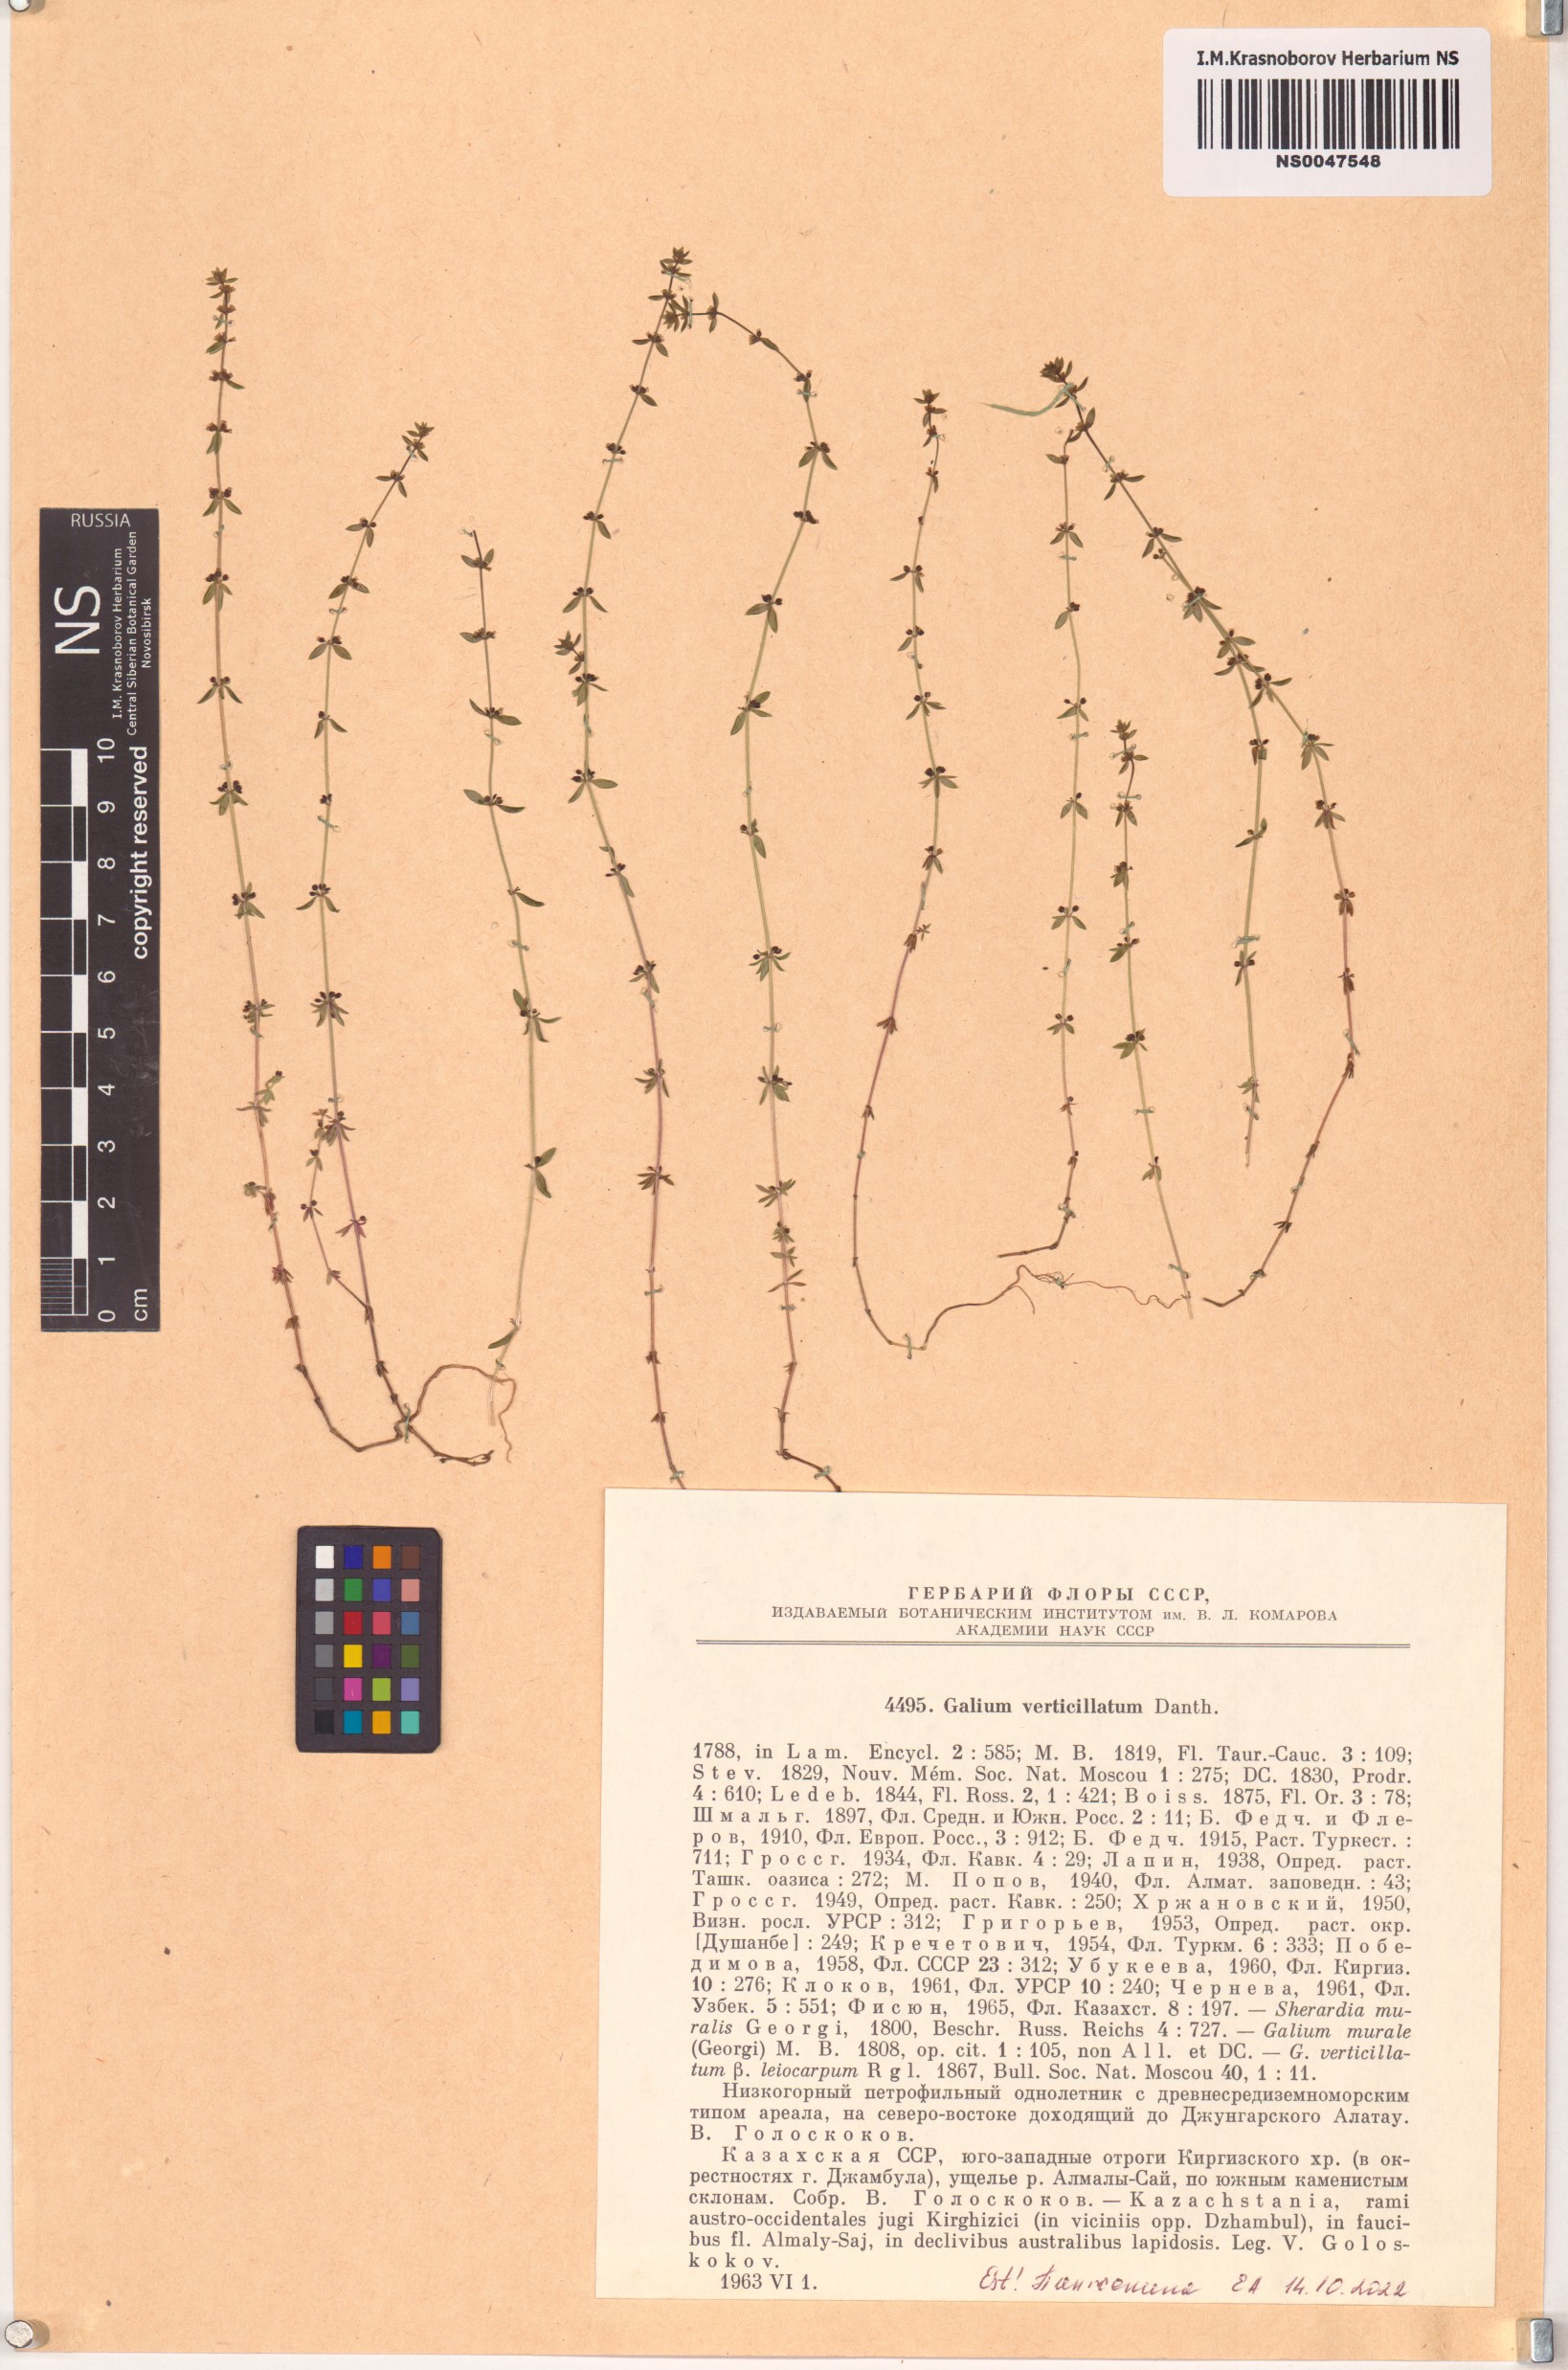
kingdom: Plantae
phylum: Tracheophyta
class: Magnoliopsida
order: Gentianales
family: Rubiaceae
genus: Galium
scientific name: Galium verticillatum
